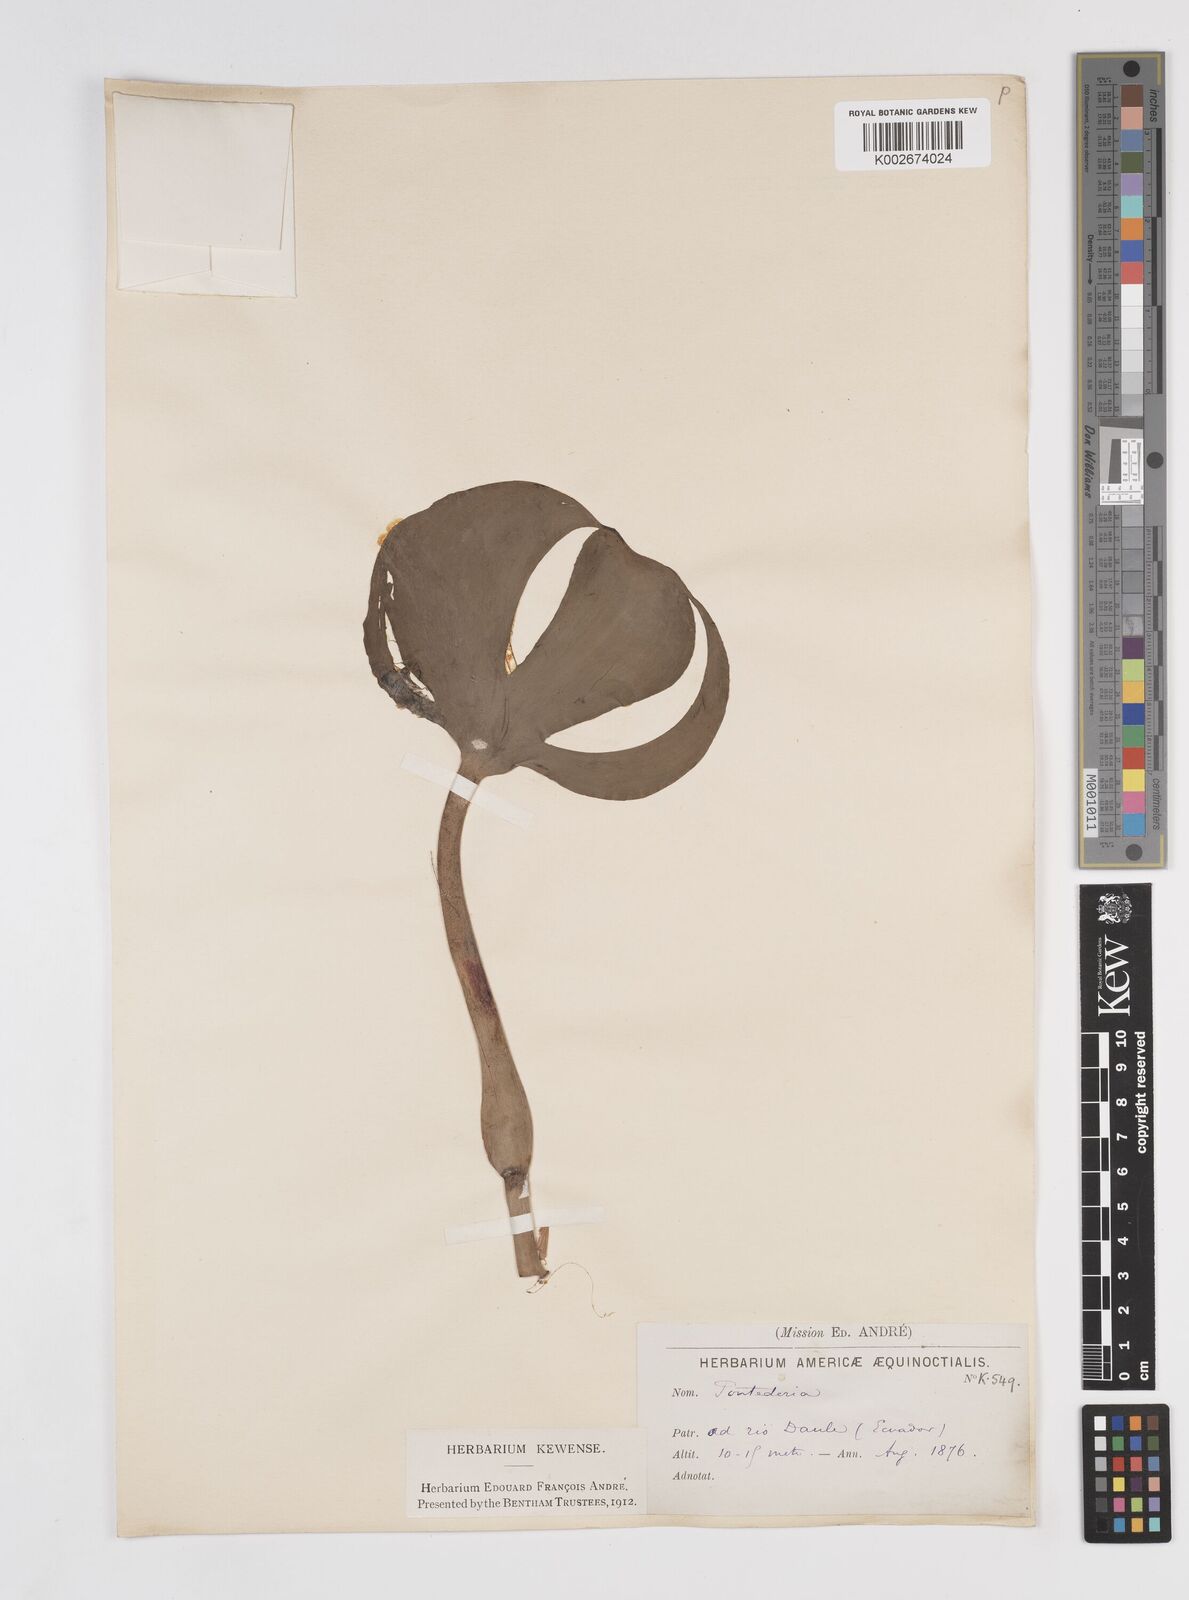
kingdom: Plantae
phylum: Tracheophyta
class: Liliopsida
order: Commelinales
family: Pontederiaceae
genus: Pontederia
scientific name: Pontederia azurea
